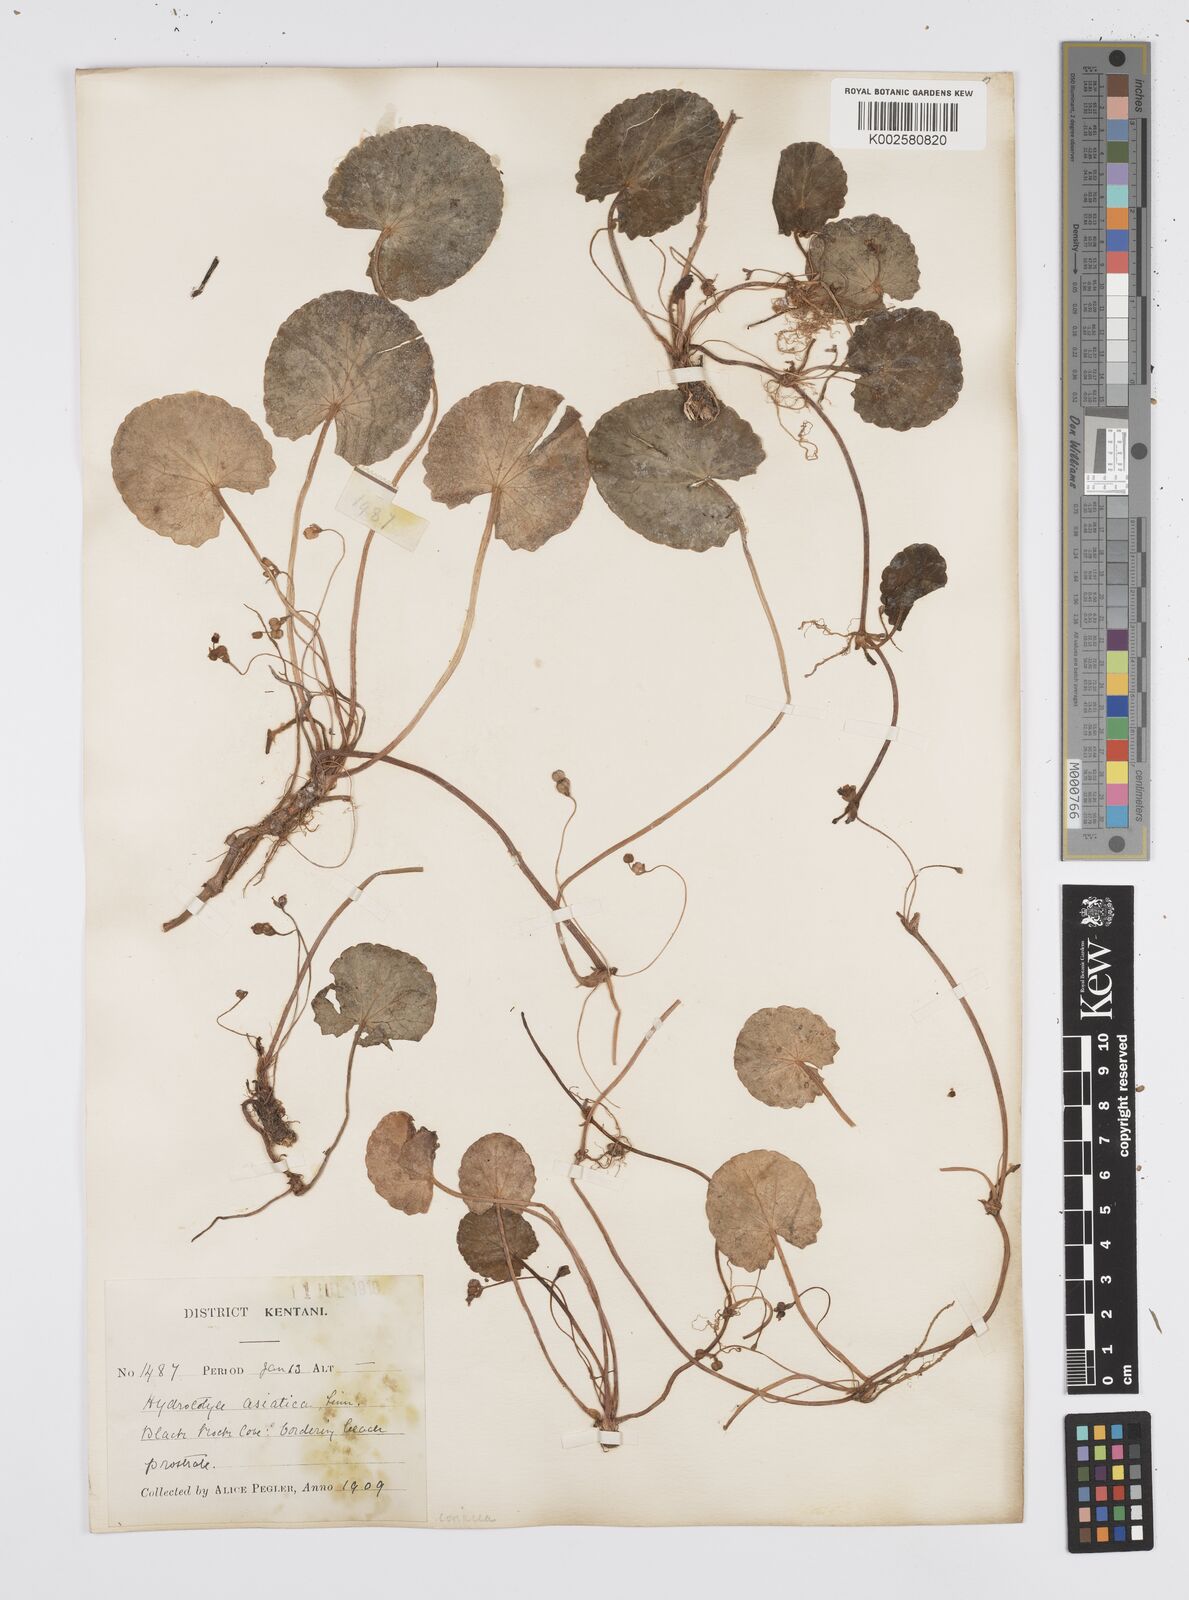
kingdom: Plantae
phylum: Tracheophyta
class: Magnoliopsida
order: Apiales
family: Apiaceae
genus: Centella
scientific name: Centella coriacea
